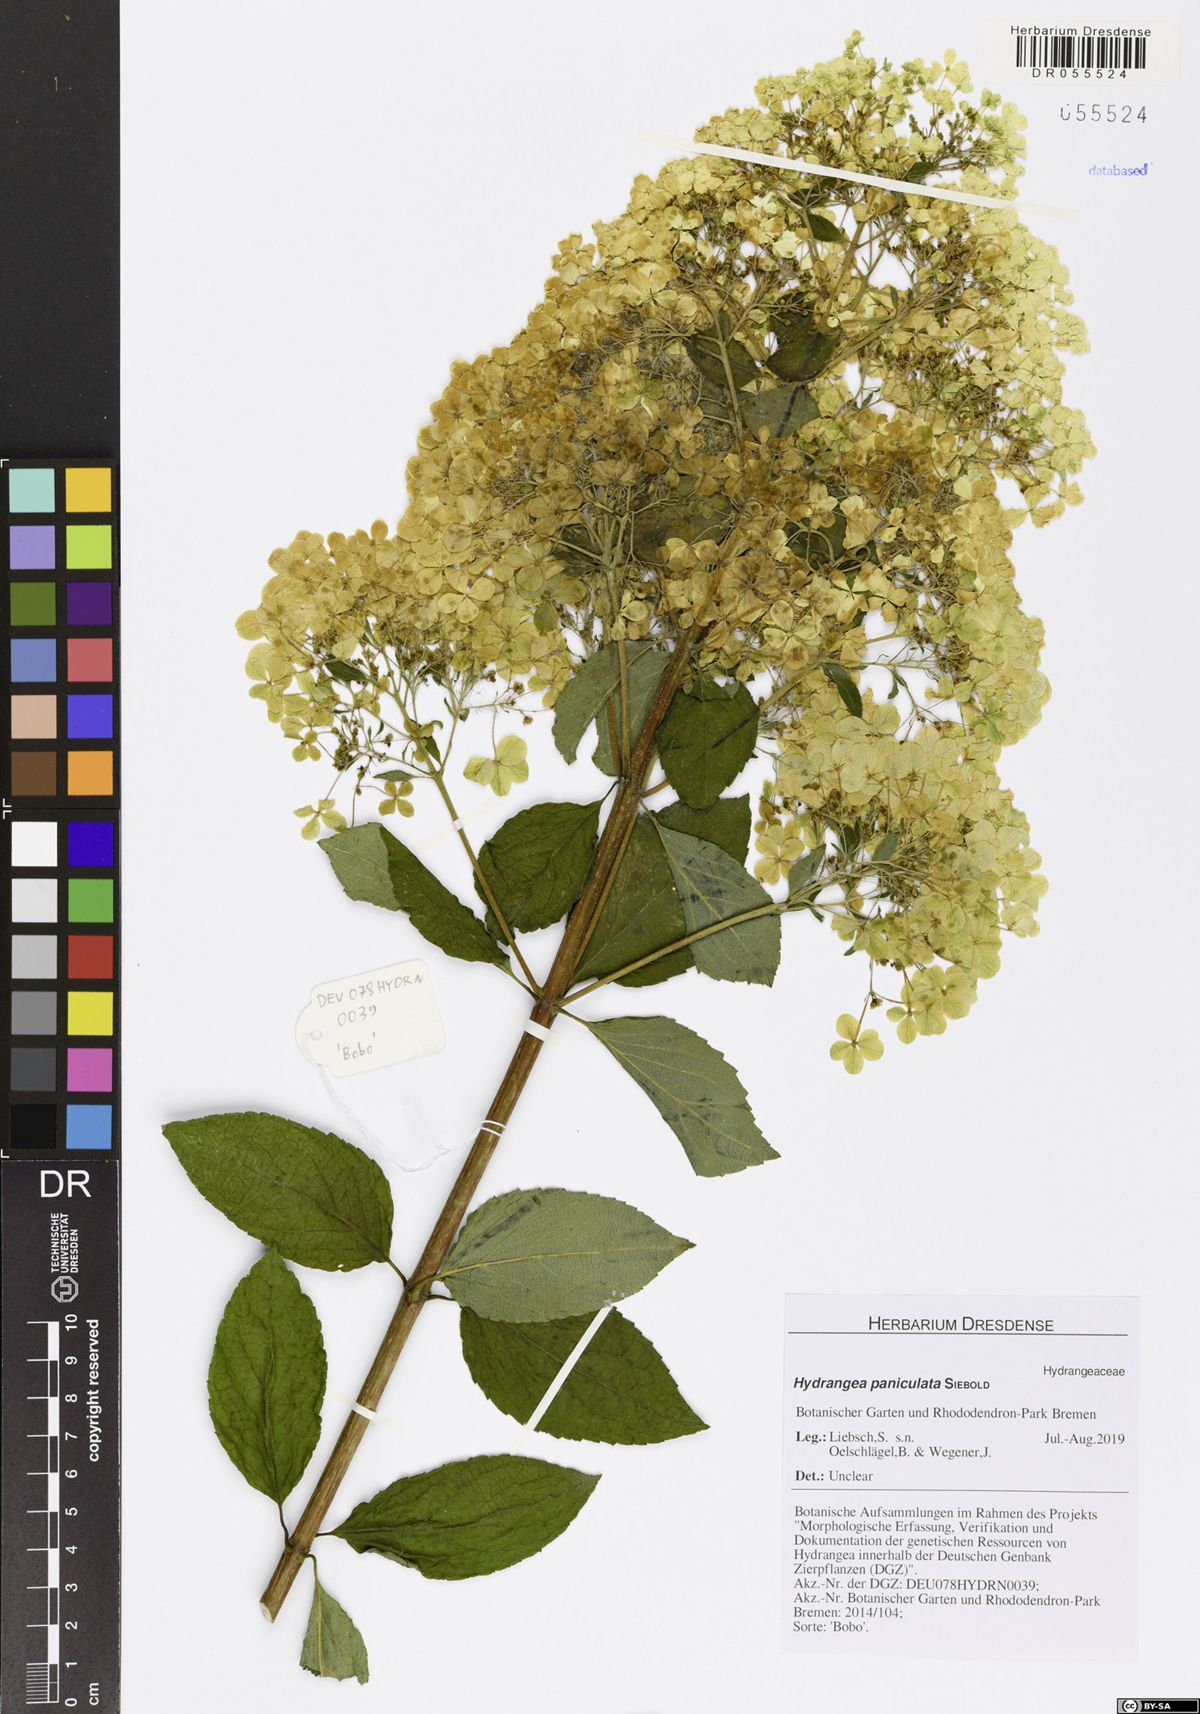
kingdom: Plantae
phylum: Tracheophyta
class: Magnoliopsida
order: Cornales
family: Hydrangeaceae
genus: Hydrangea
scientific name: Hydrangea paniculata
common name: Panicled hydrangea
